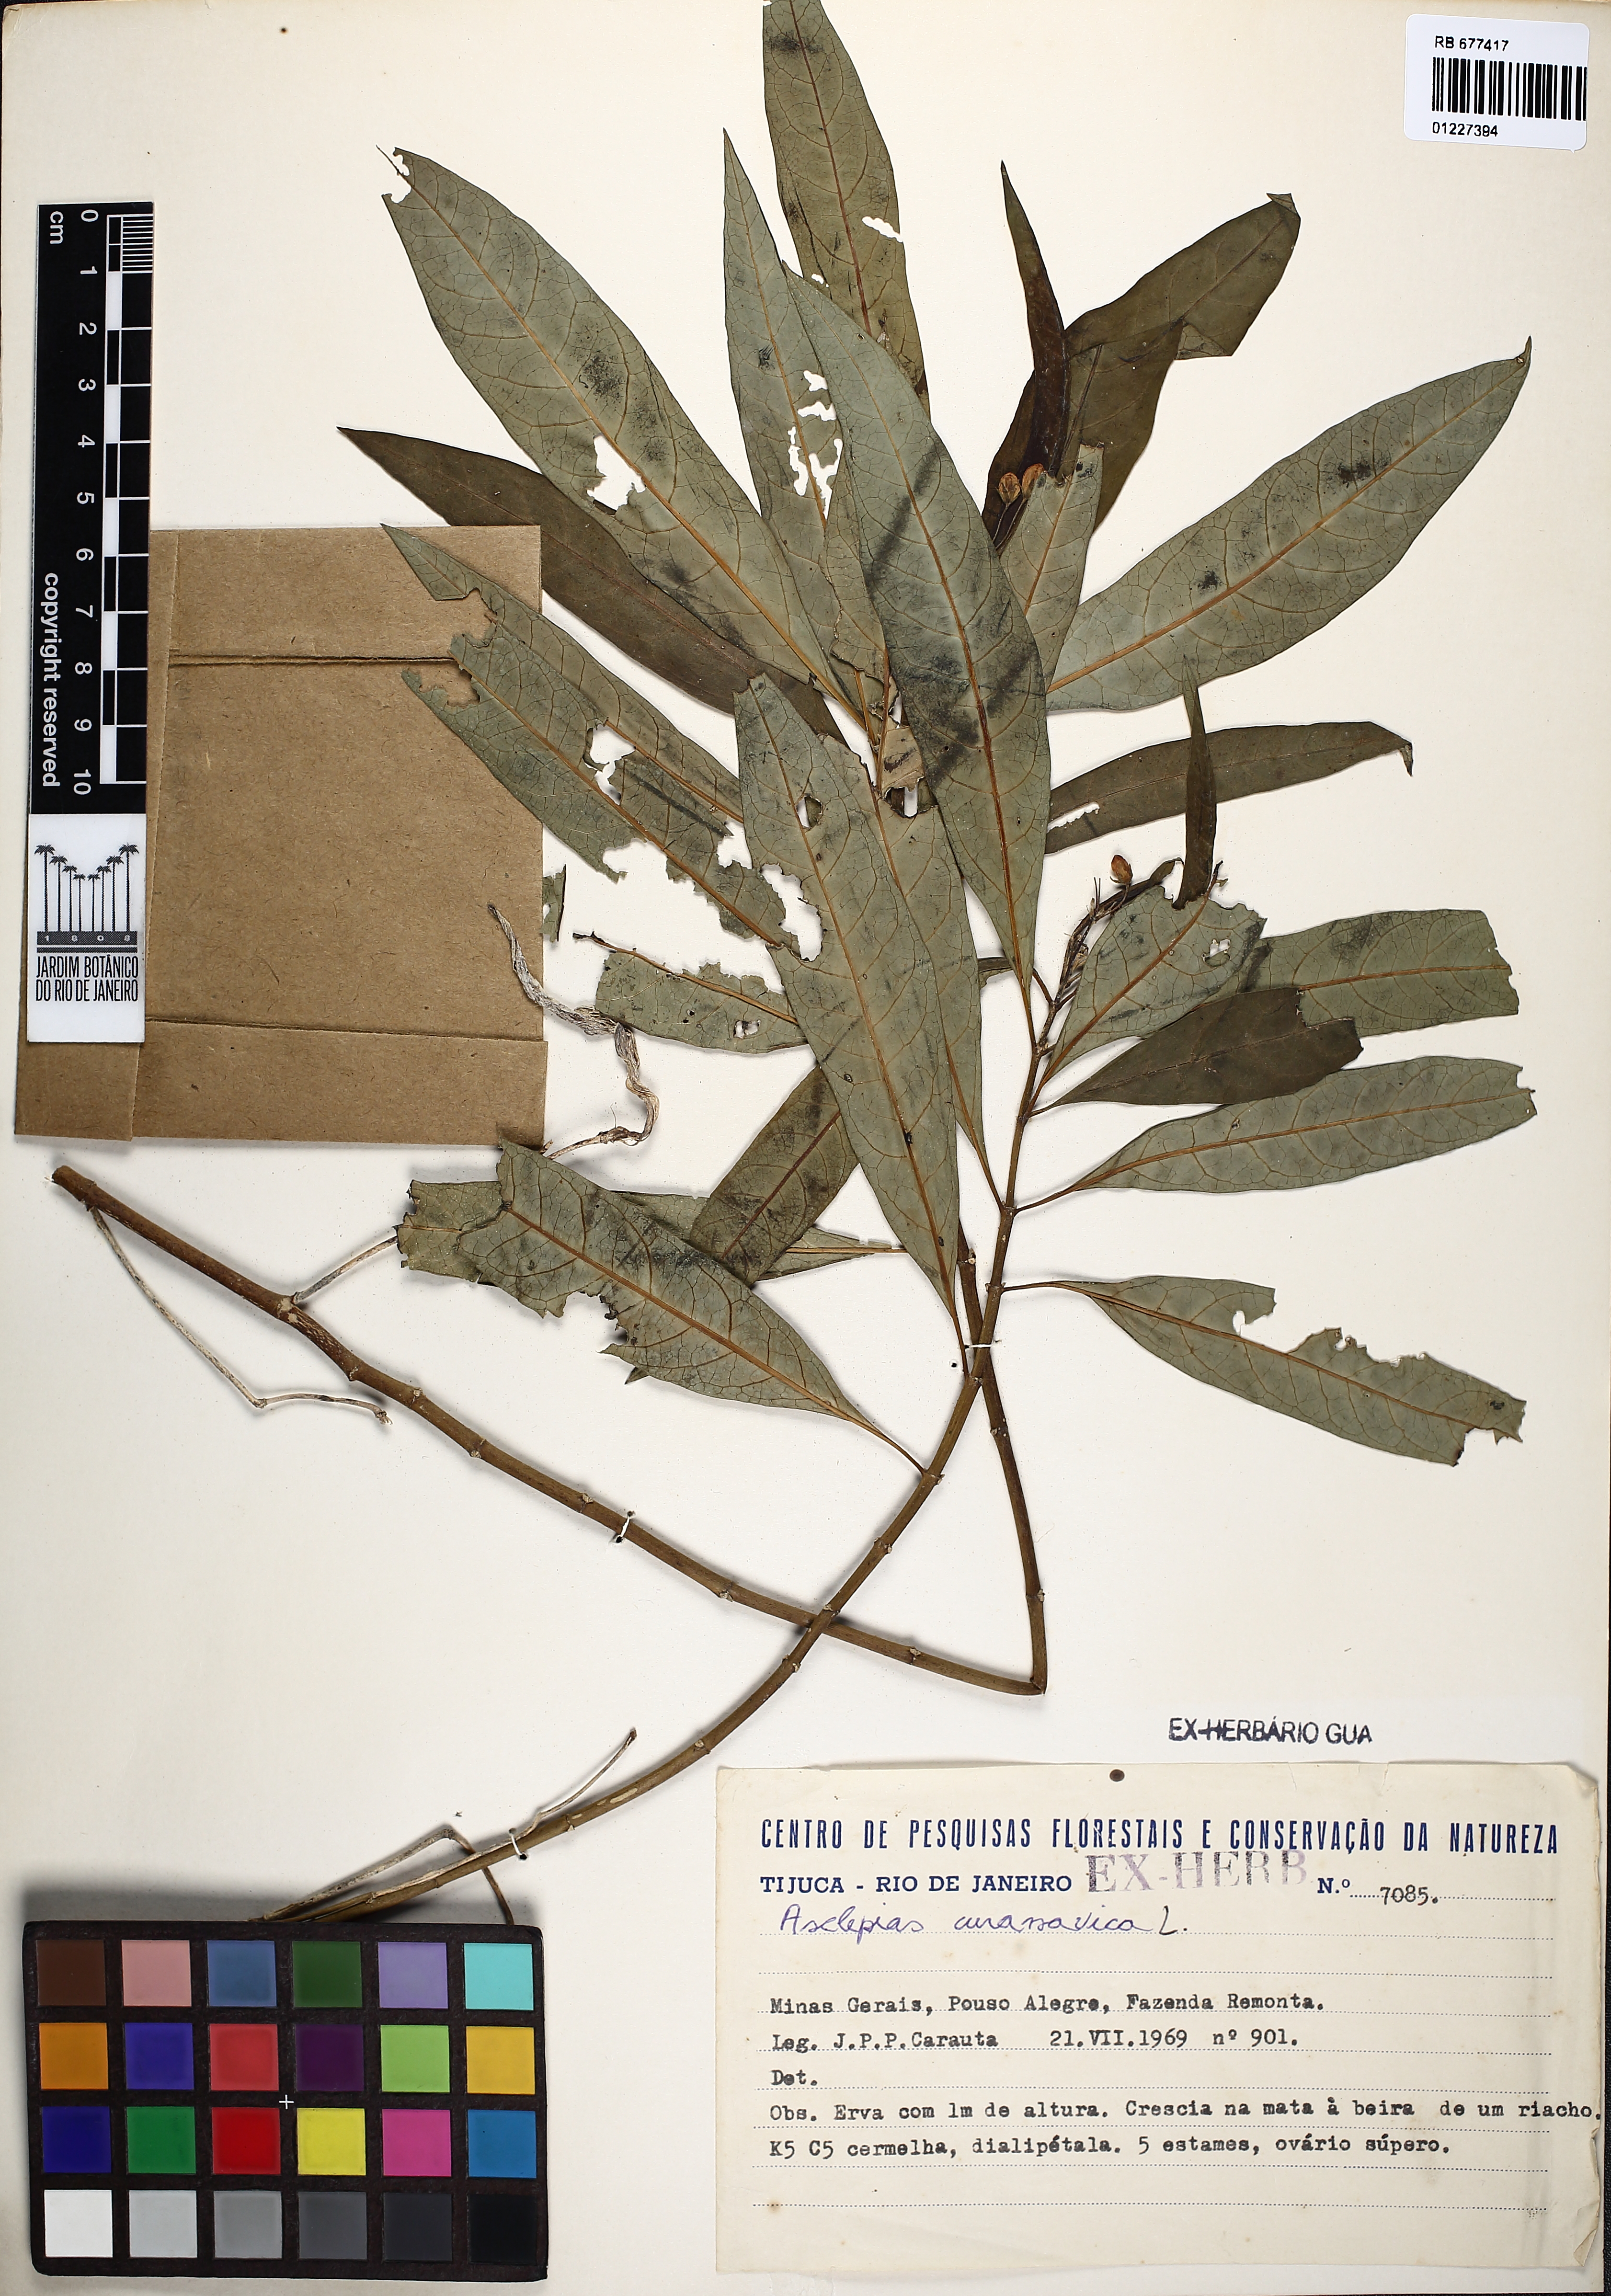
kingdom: Plantae
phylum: Tracheophyta
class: Magnoliopsida
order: Gentianales
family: Apocynaceae
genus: Asclepias
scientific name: Asclepias curassavica
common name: Bloodflower
